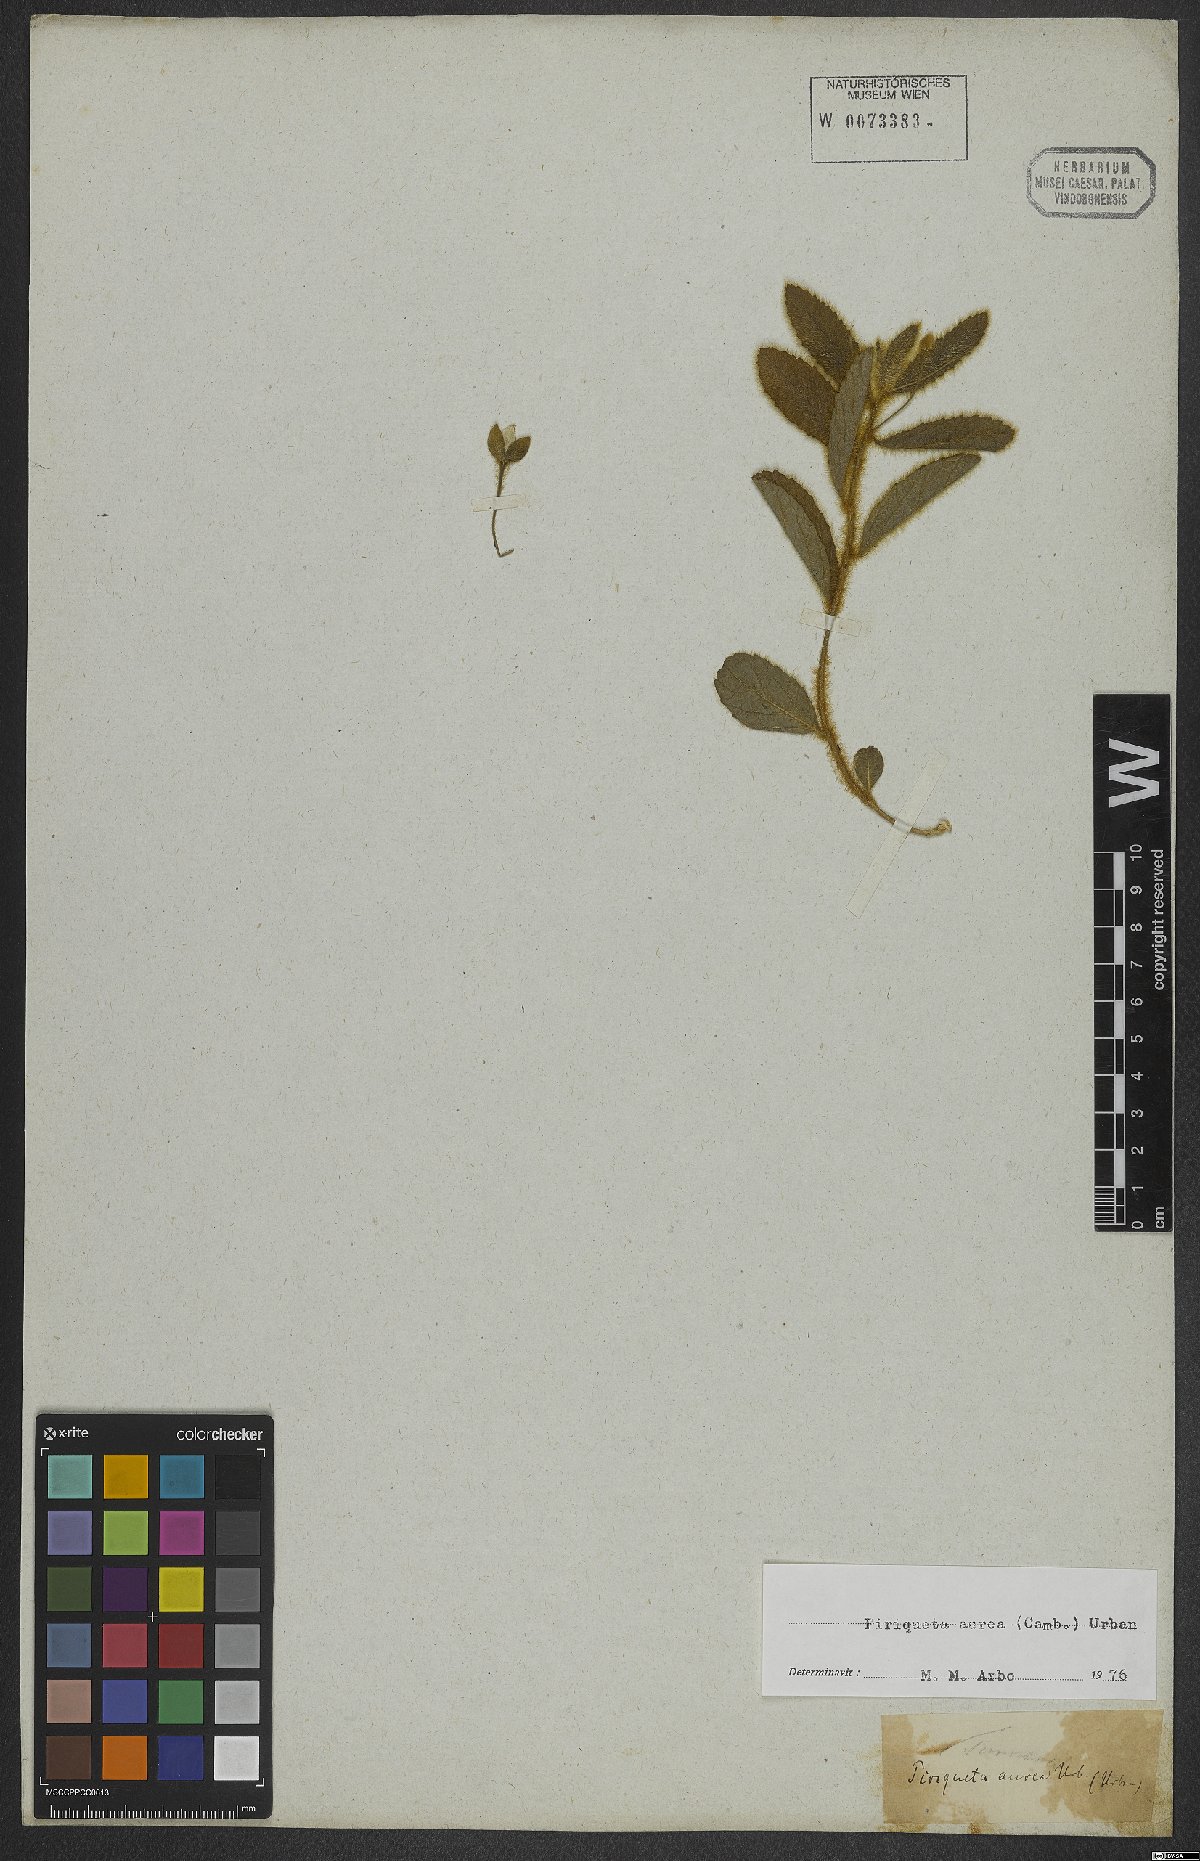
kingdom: Plantae
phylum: Tracheophyta
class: Magnoliopsida
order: Malpighiales
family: Turneraceae
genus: Piriqueta
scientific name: Piriqueta aurea
